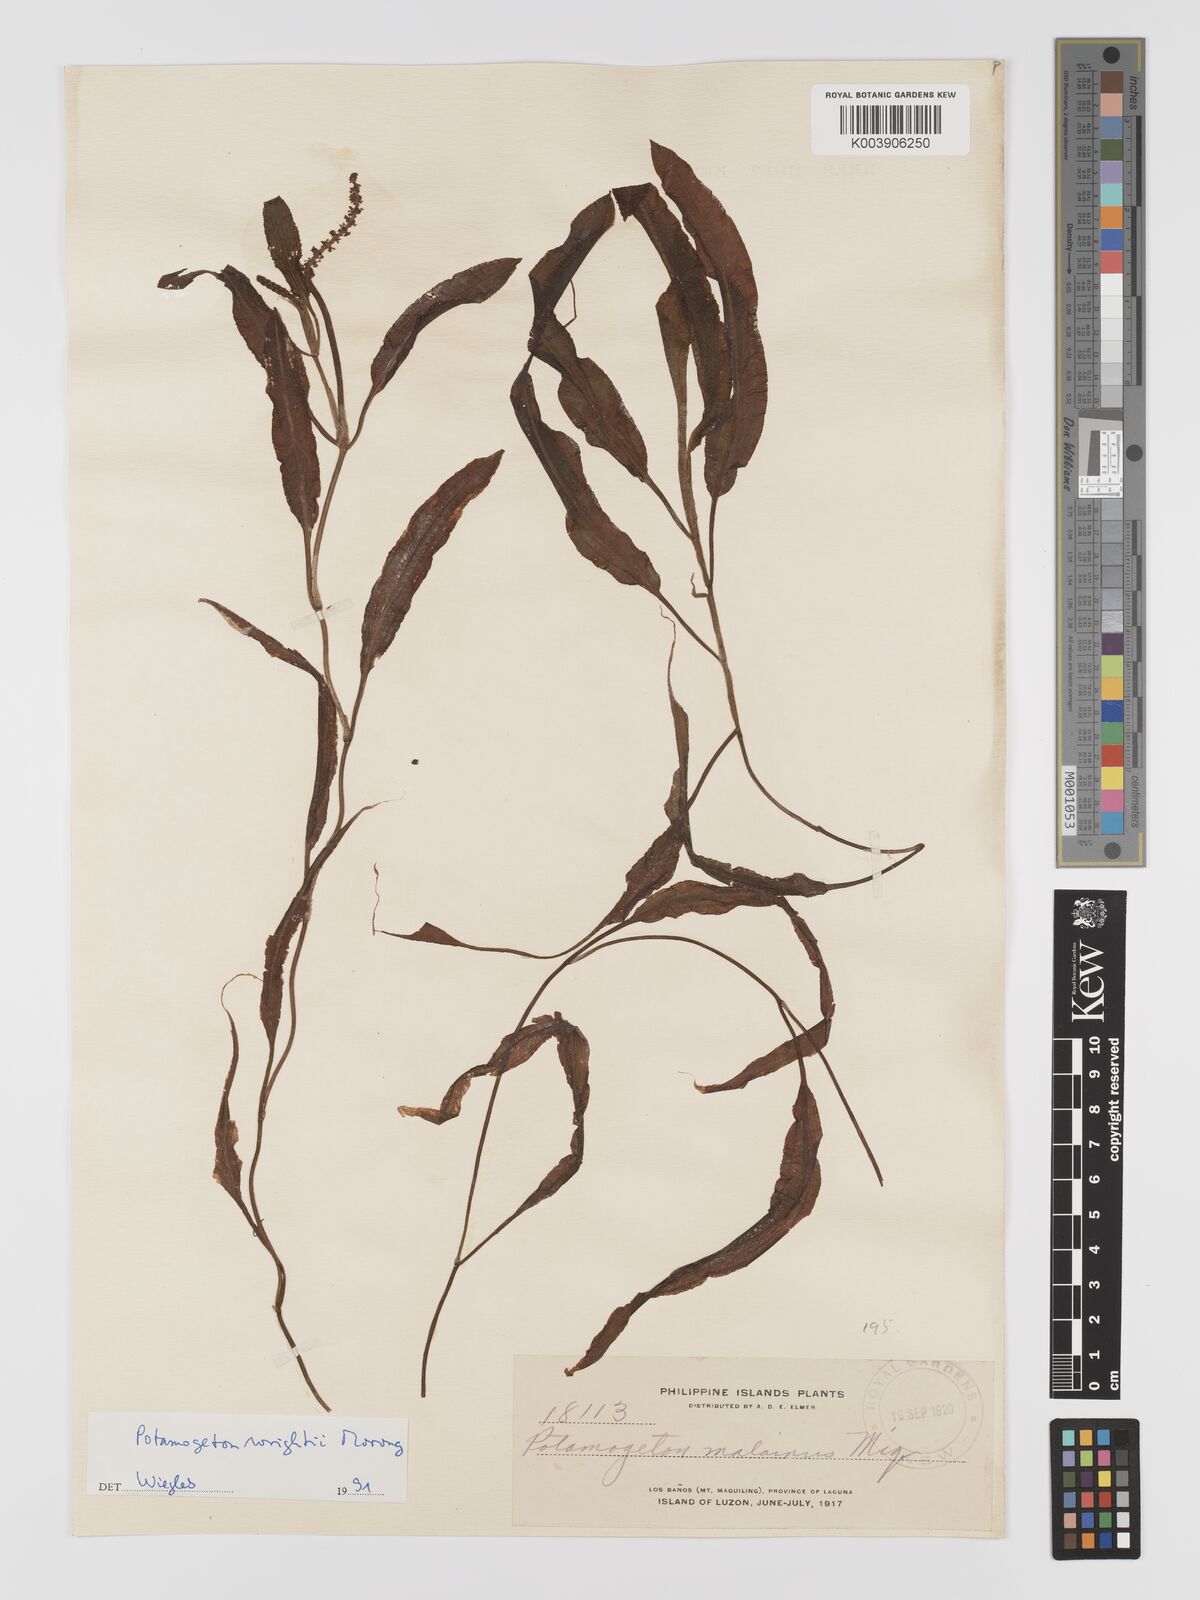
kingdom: Plantae
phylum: Tracheophyta
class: Liliopsida
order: Alismatales
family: Potamogetonaceae
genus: Potamogeton
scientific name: Potamogeton wrightii
